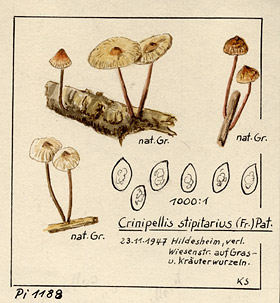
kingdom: Fungi
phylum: Basidiomycota
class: Agaricomycetes
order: Agaricales
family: Marasmiaceae
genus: Crinipellis
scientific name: Crinipellis scabella
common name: Hairy parachute
